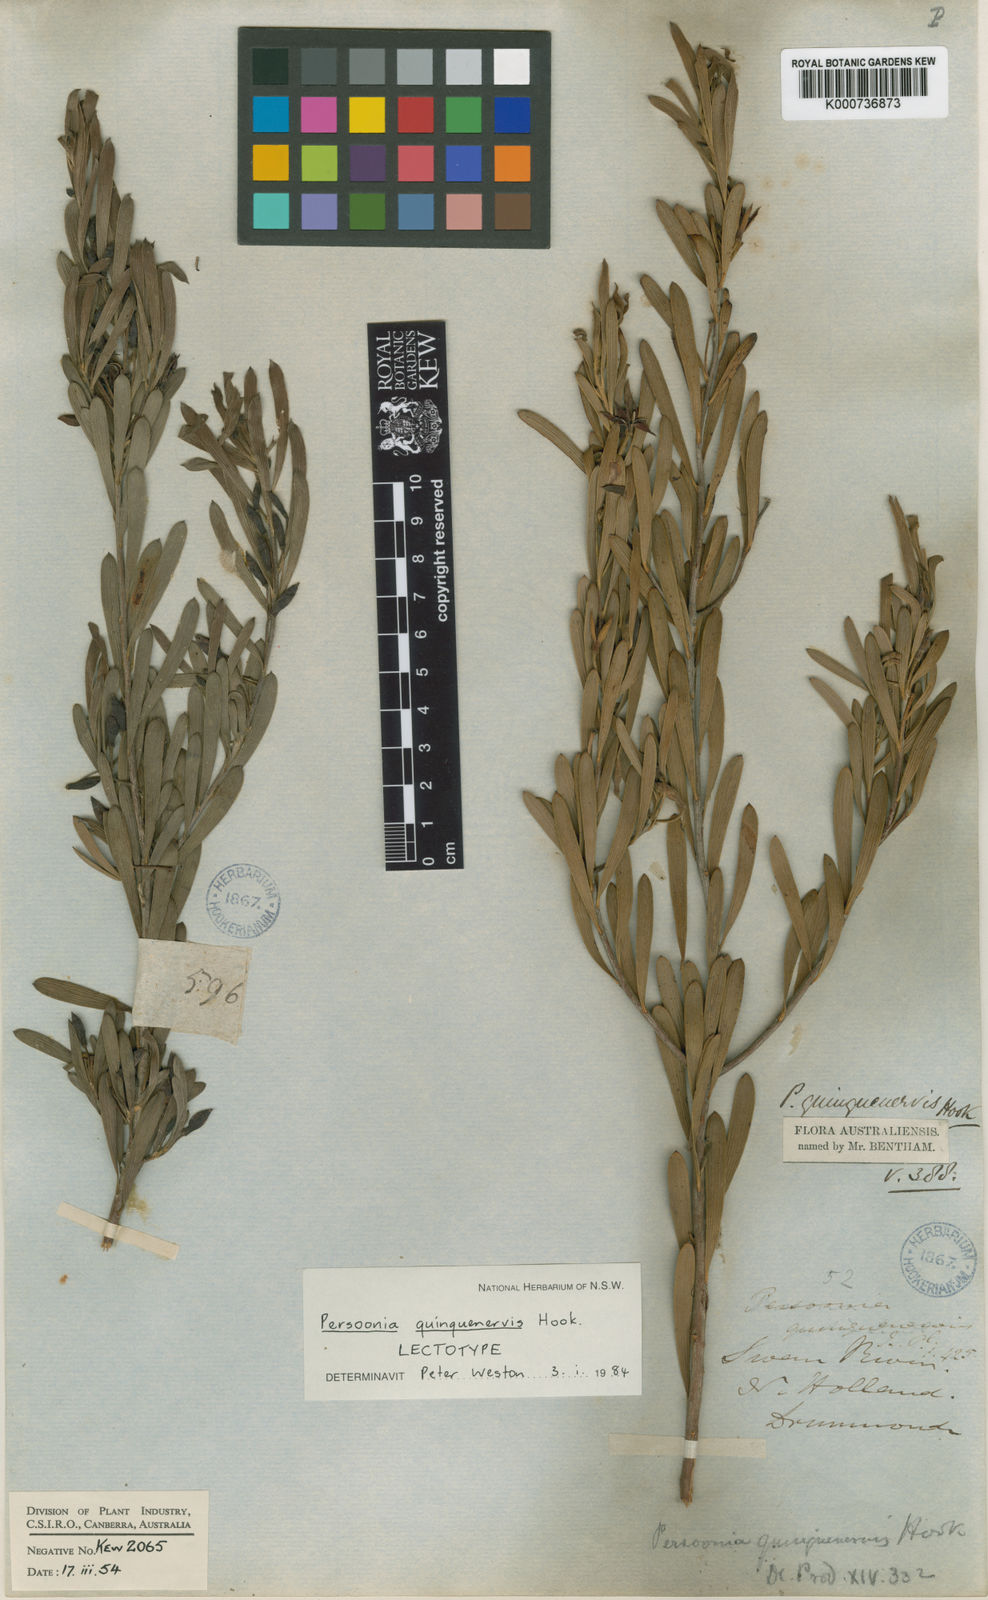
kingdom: Plantae
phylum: Tracheophyta
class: Magnoliopsida
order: Proteales
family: Proteaceae
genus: Persoonia
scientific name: Persoonia quinquenervis
